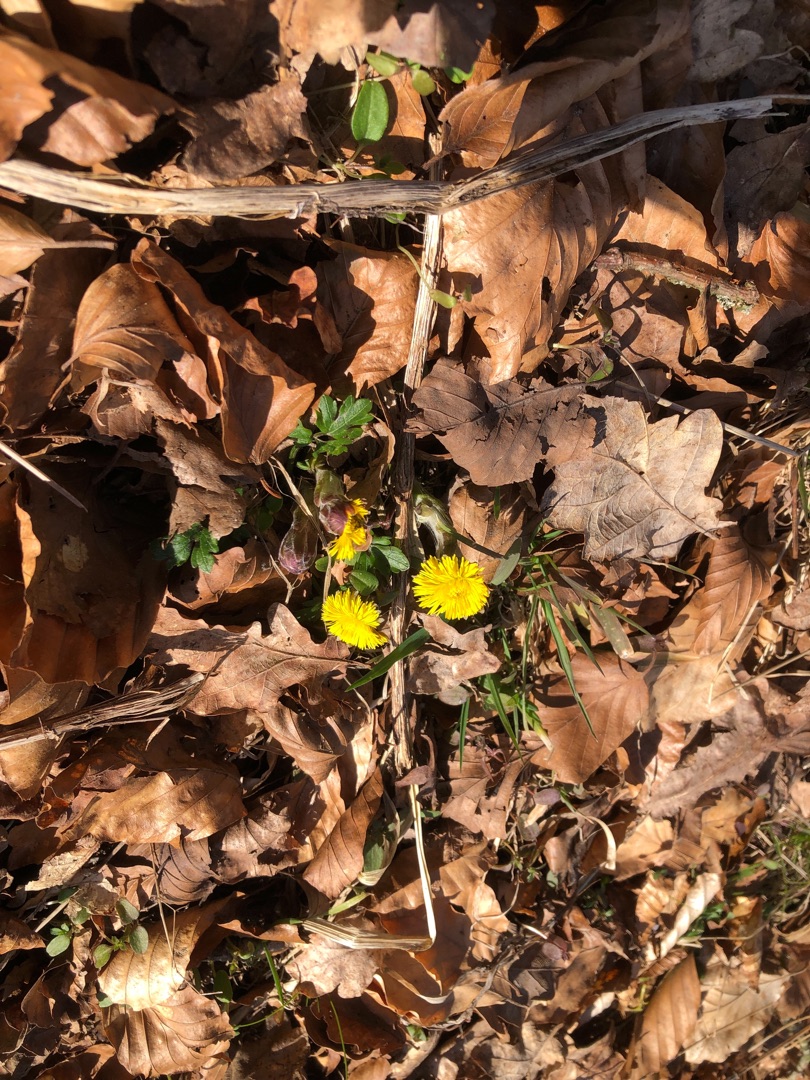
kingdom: Plantae
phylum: Tracheophyta
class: Magnoliopsida
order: Asterales
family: Asteraceae
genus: Tussilago
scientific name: Tussilago farfara
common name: Følfod
